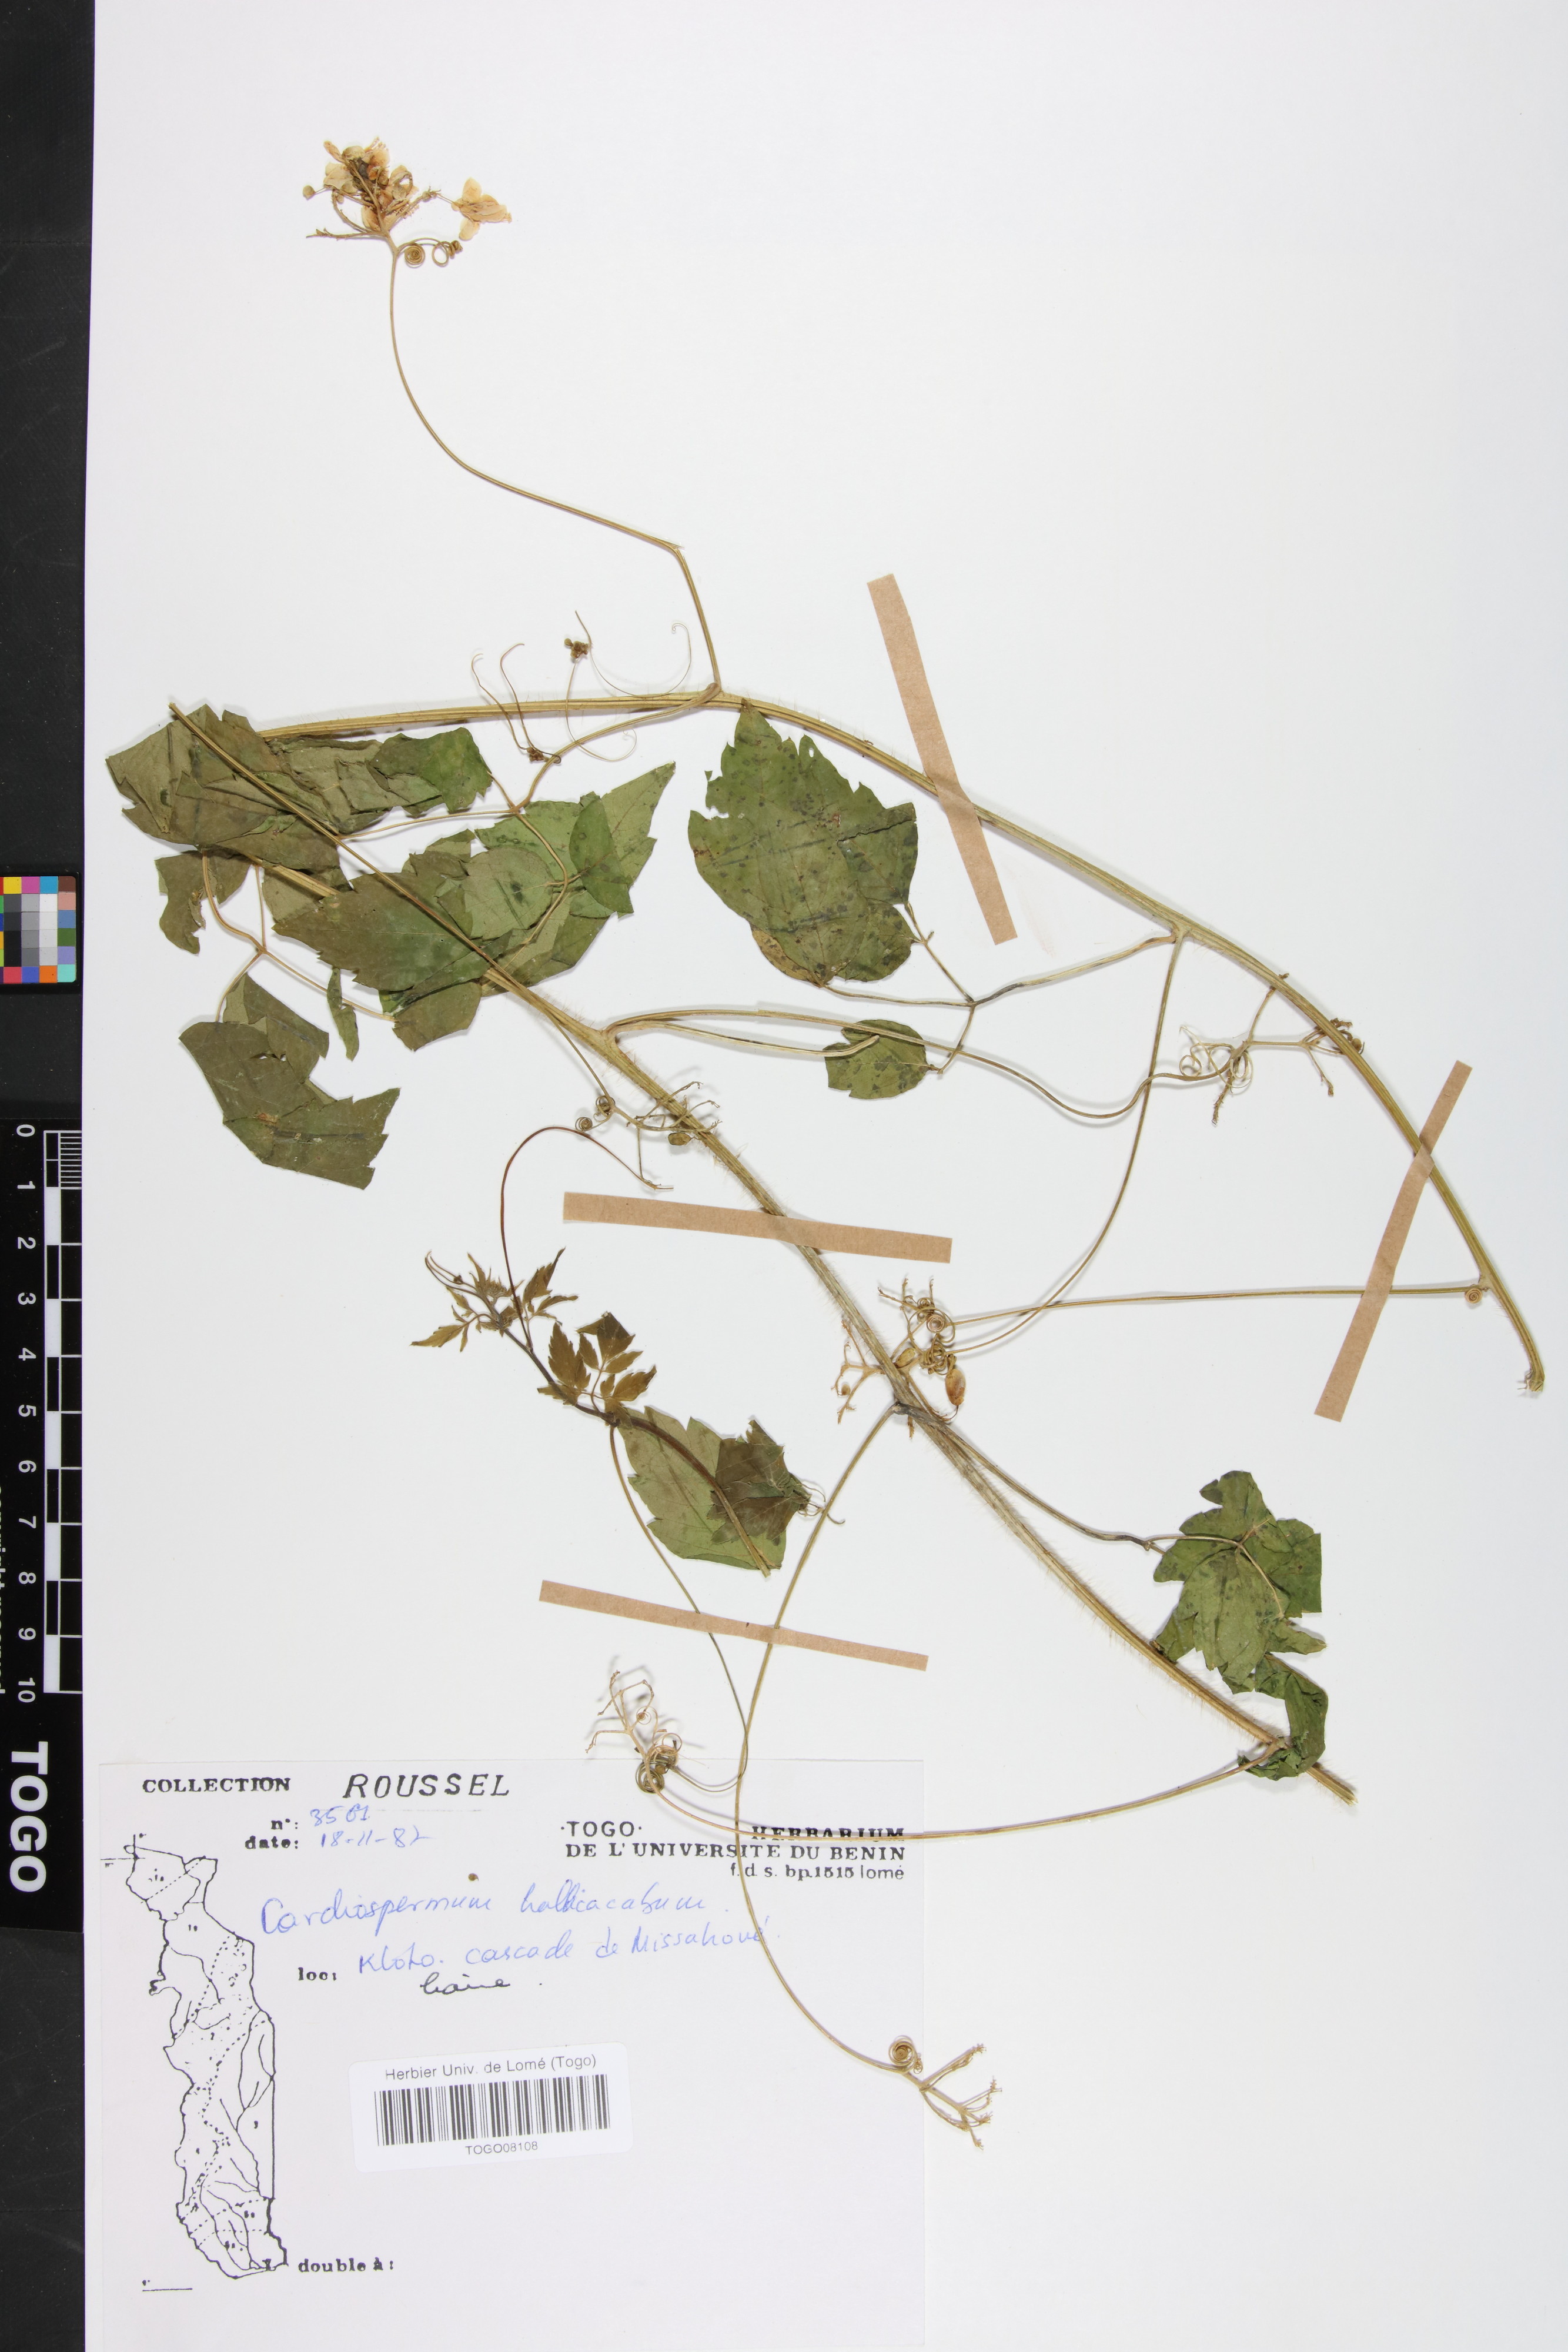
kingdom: Plantae
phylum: Tracheophyta
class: Magnoliopsida
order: Sapindales
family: Sapindaceae
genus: Cardiospermum
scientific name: Cardiospermum halicacabum
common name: Balloon vine
